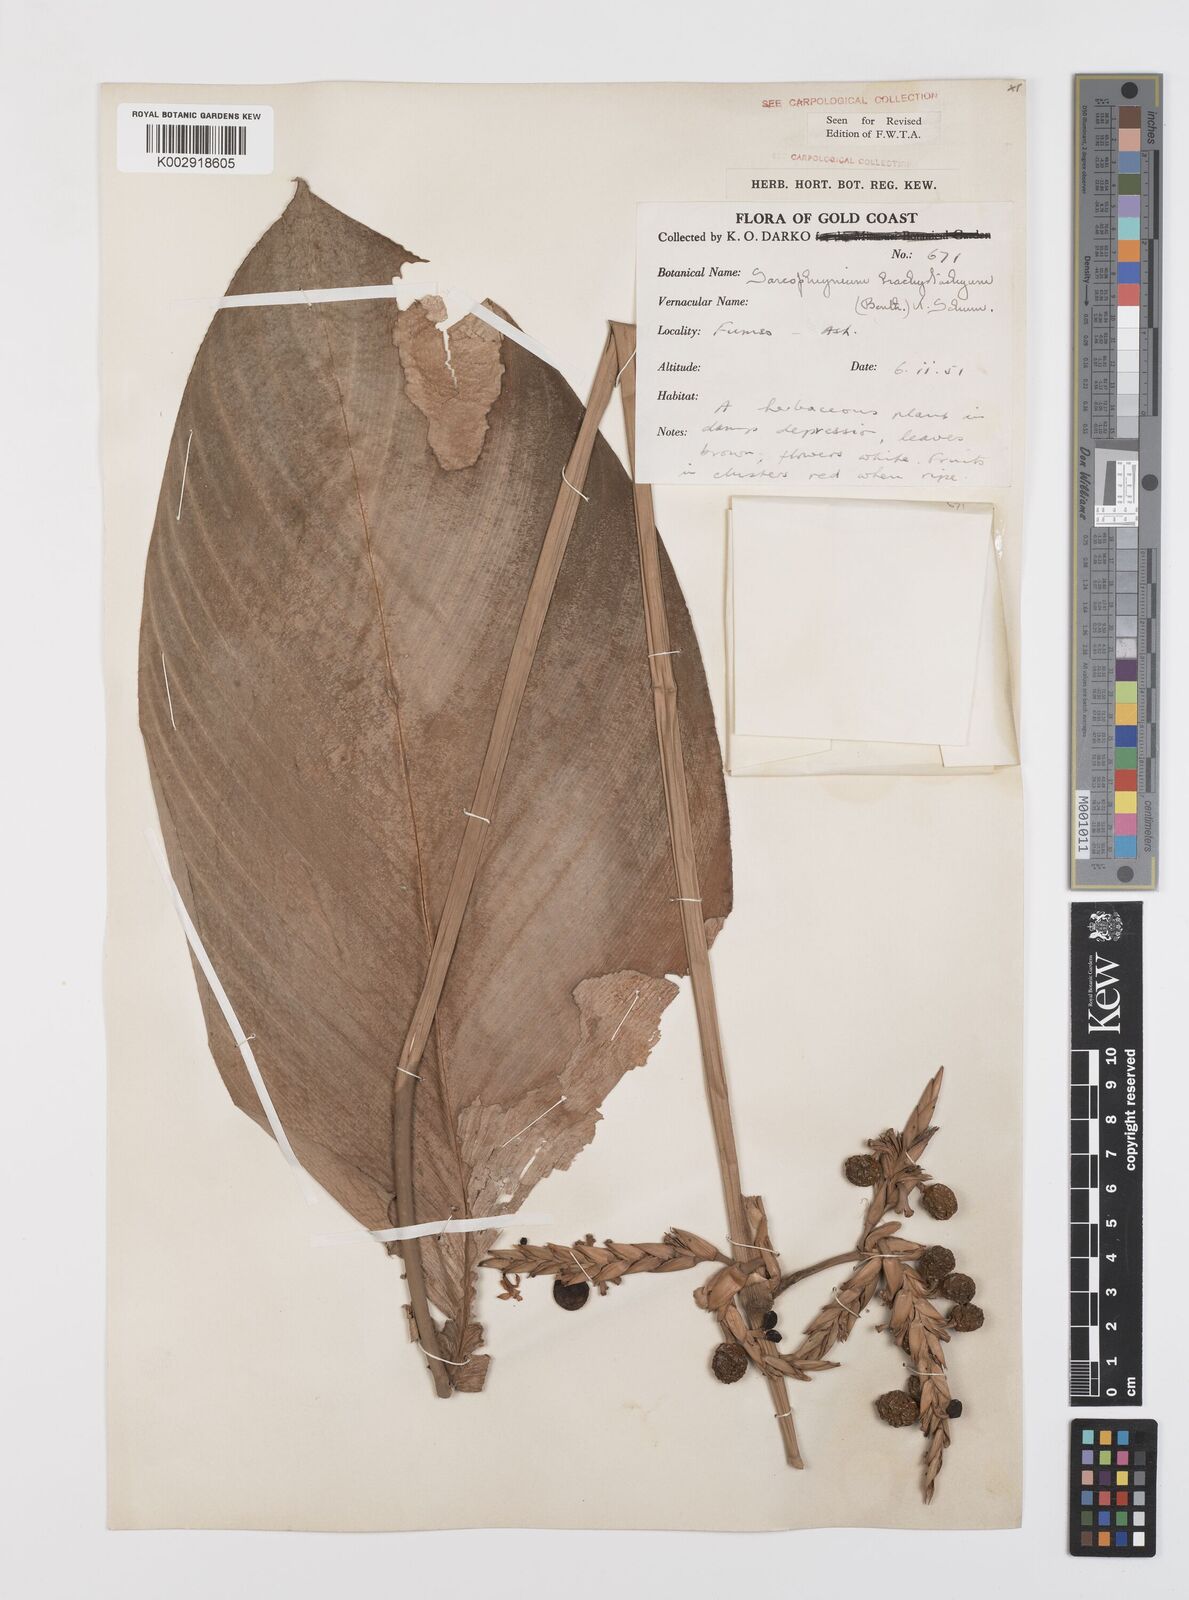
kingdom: Plantae
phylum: Tracheophyta
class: Liliopsida
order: Zingiberales
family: Marantaceae
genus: Sarcophrynium
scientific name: Sarcophrynium brachystachyum
